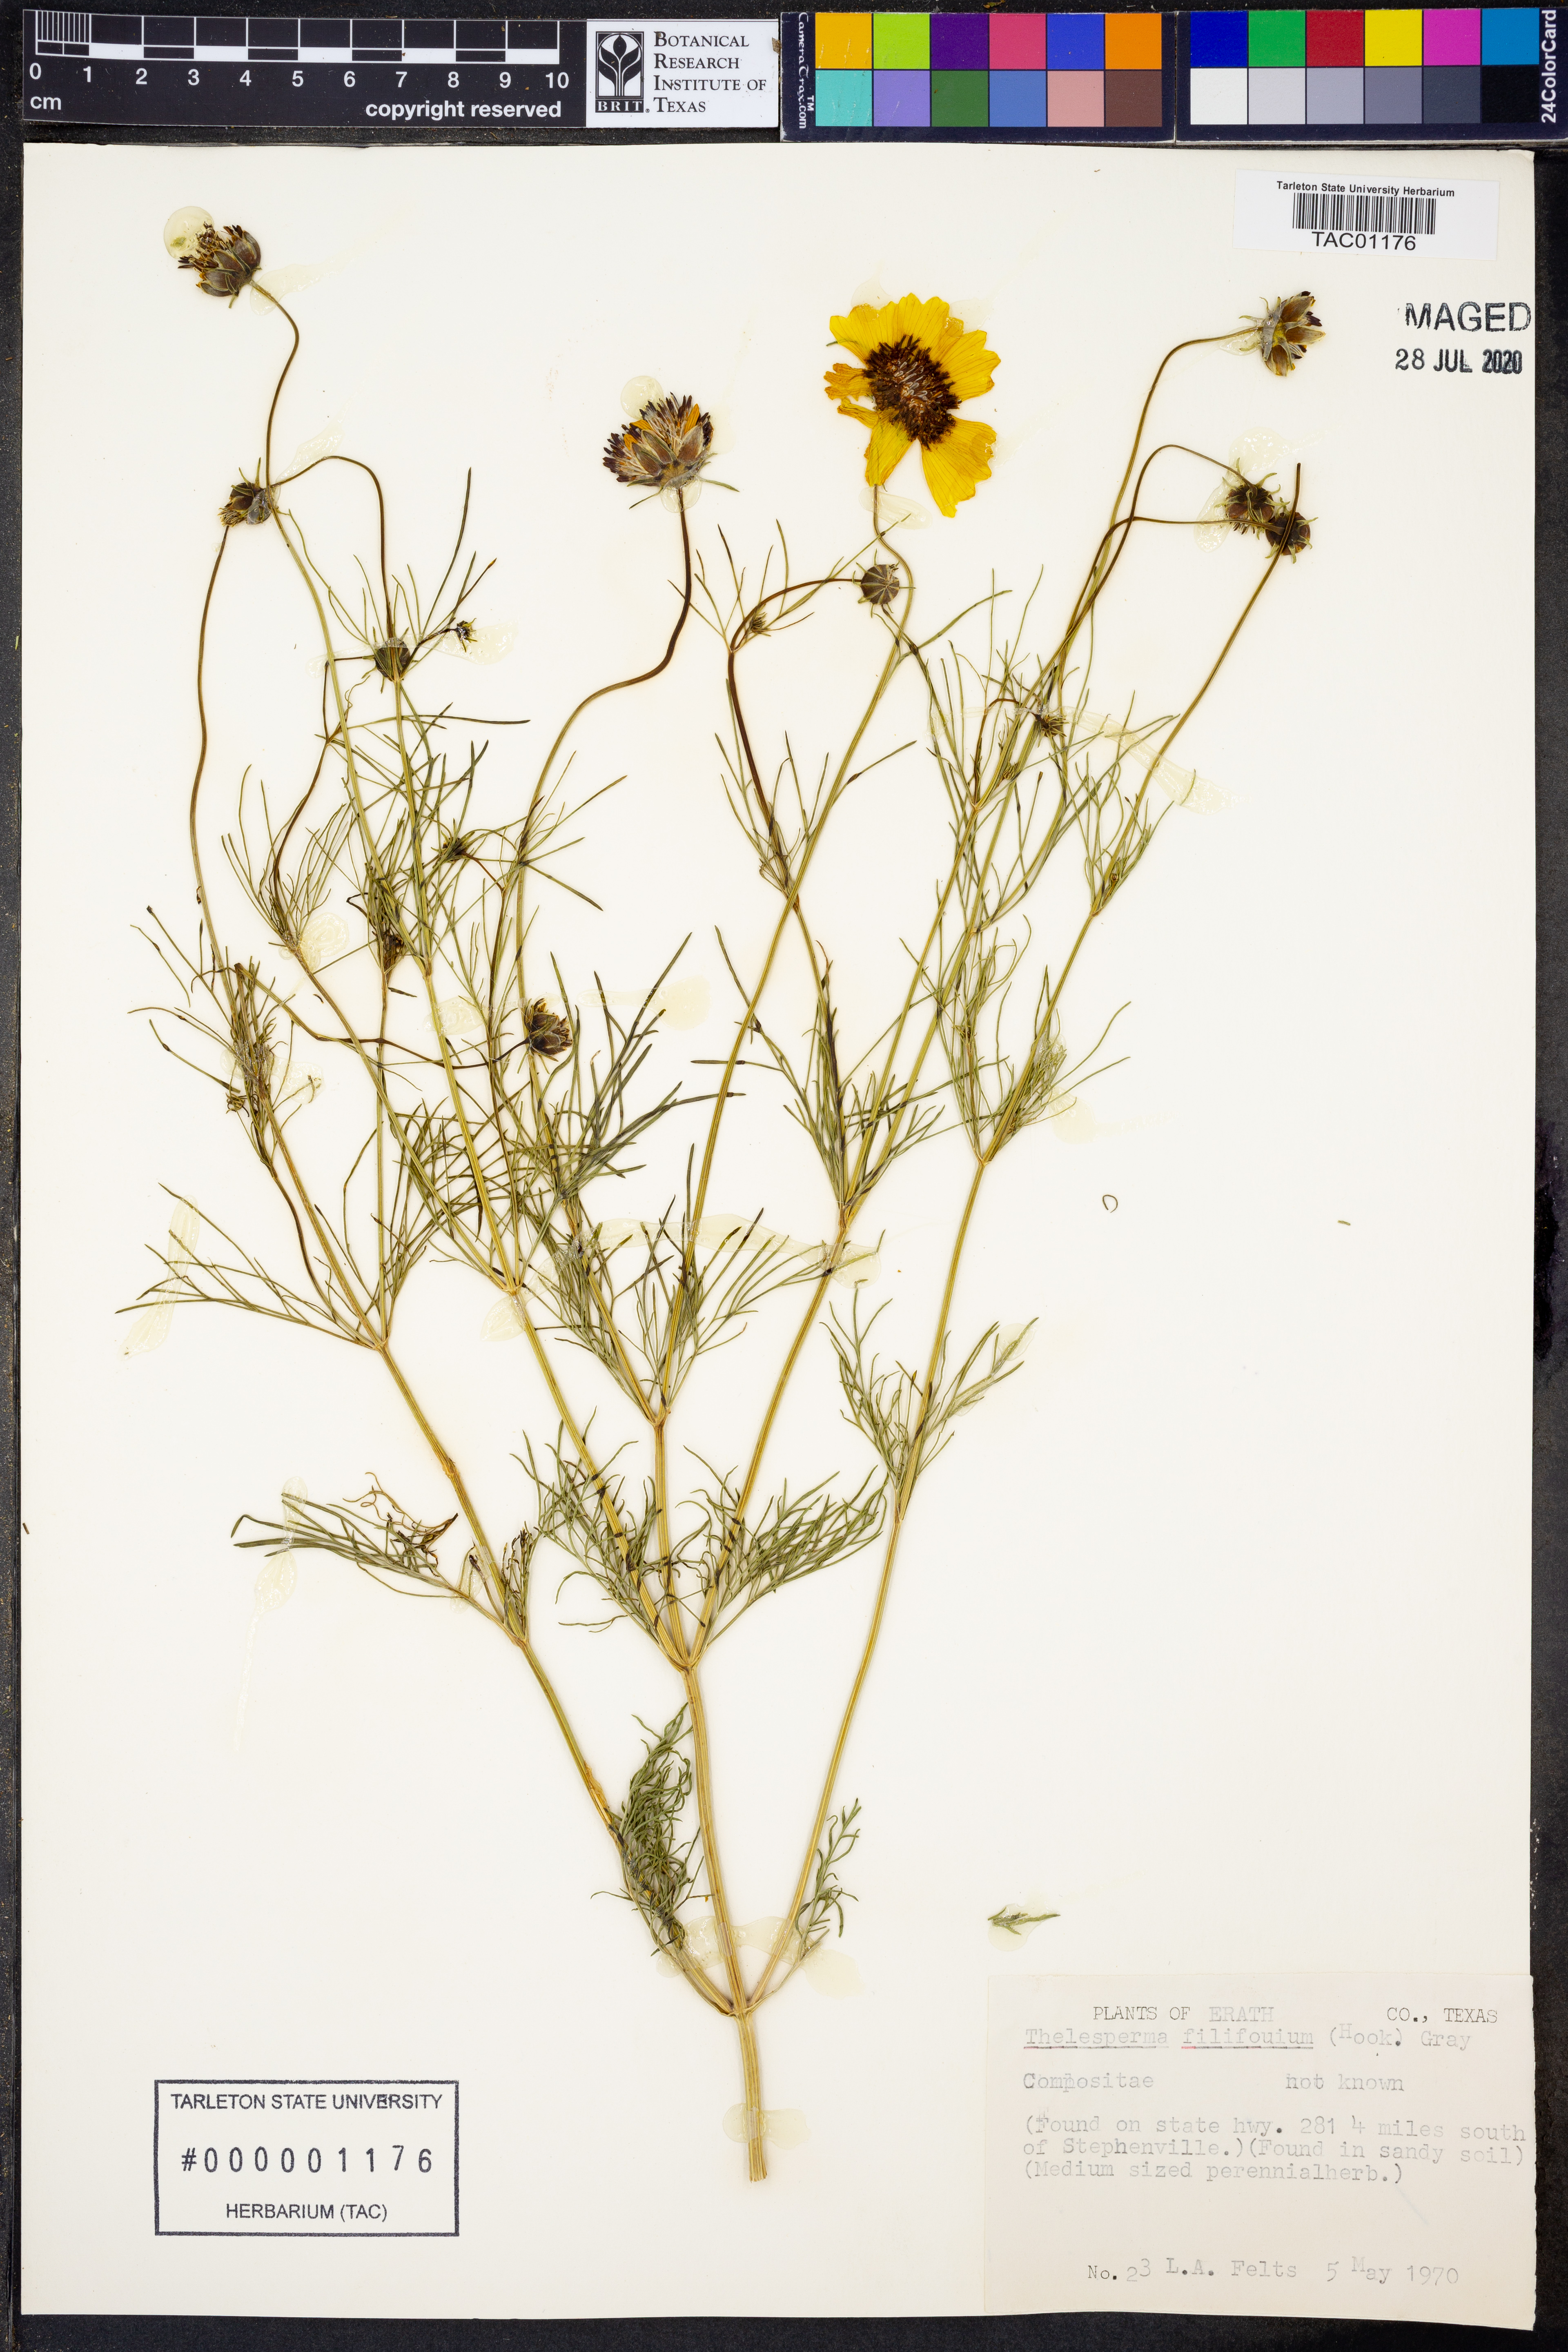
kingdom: Plantae
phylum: Tracheophyta
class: Magnoliopsida
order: Asterales
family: Asteraceae
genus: Thelesperma
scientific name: Thelesperma filifolium
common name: Stiff greenthread
